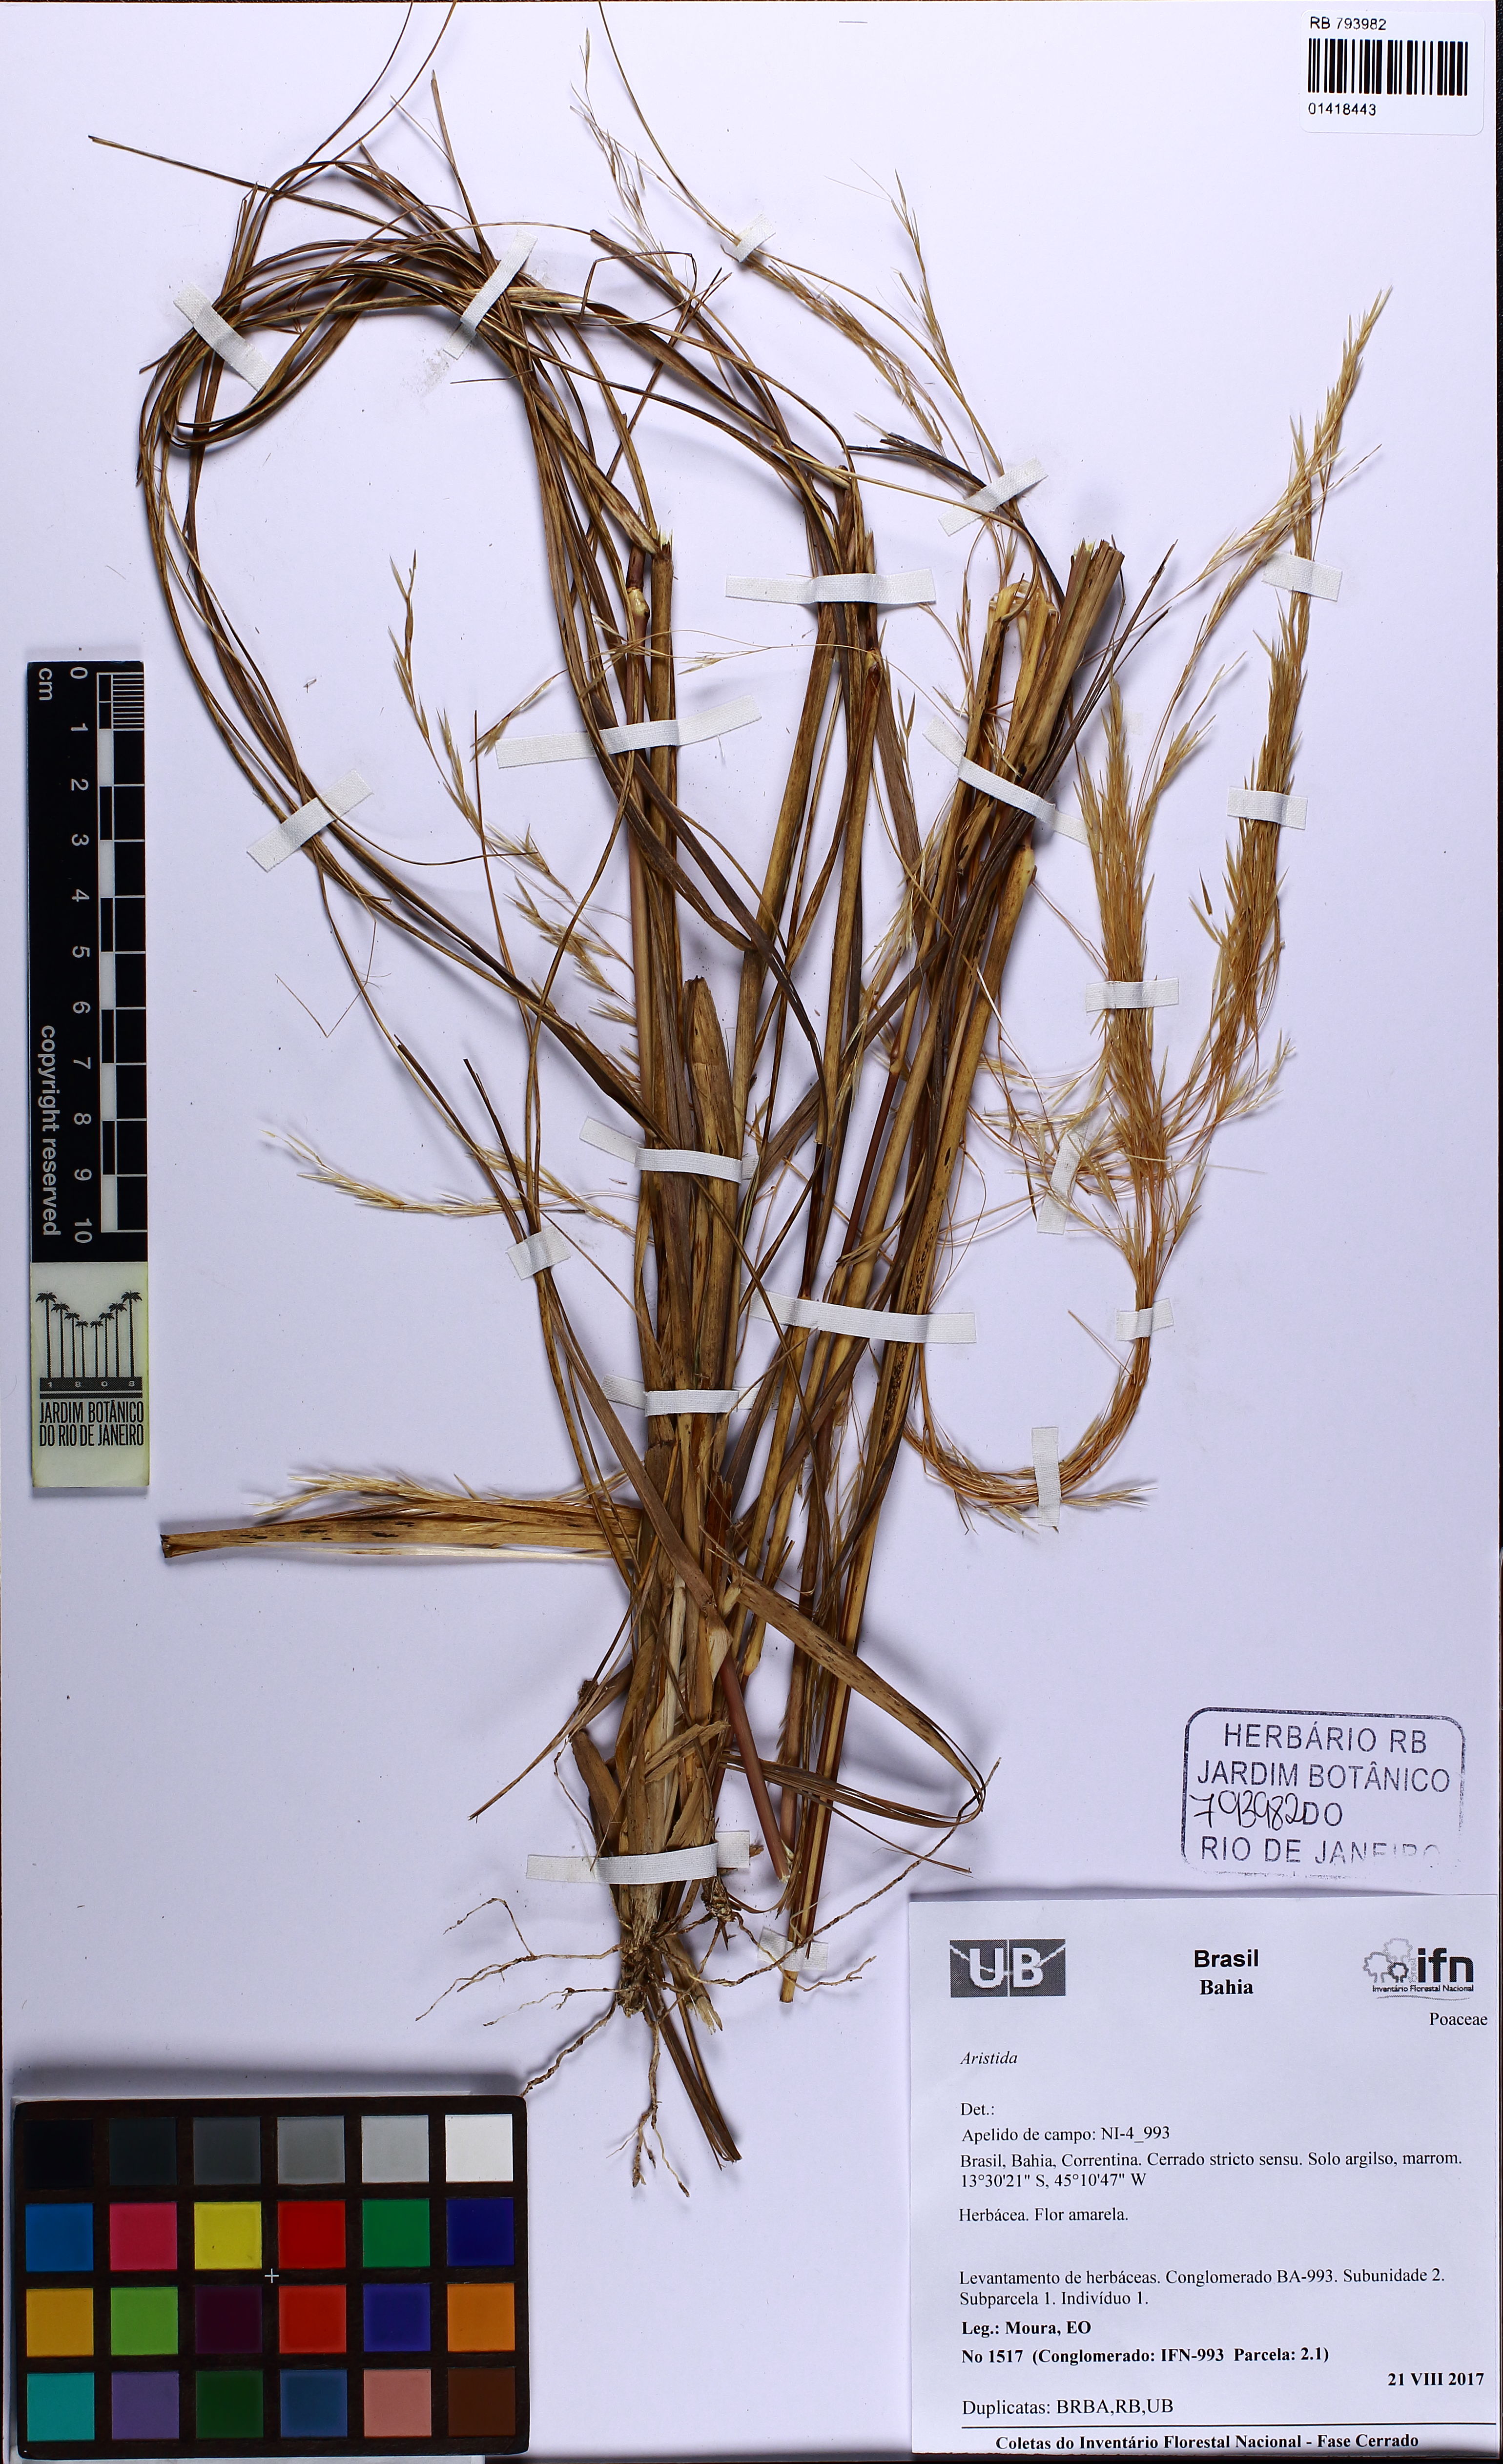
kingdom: Plantae
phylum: Tracheophyta
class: Liliopsida
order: Poales
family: Poaceae
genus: Aristida
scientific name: Aristida
